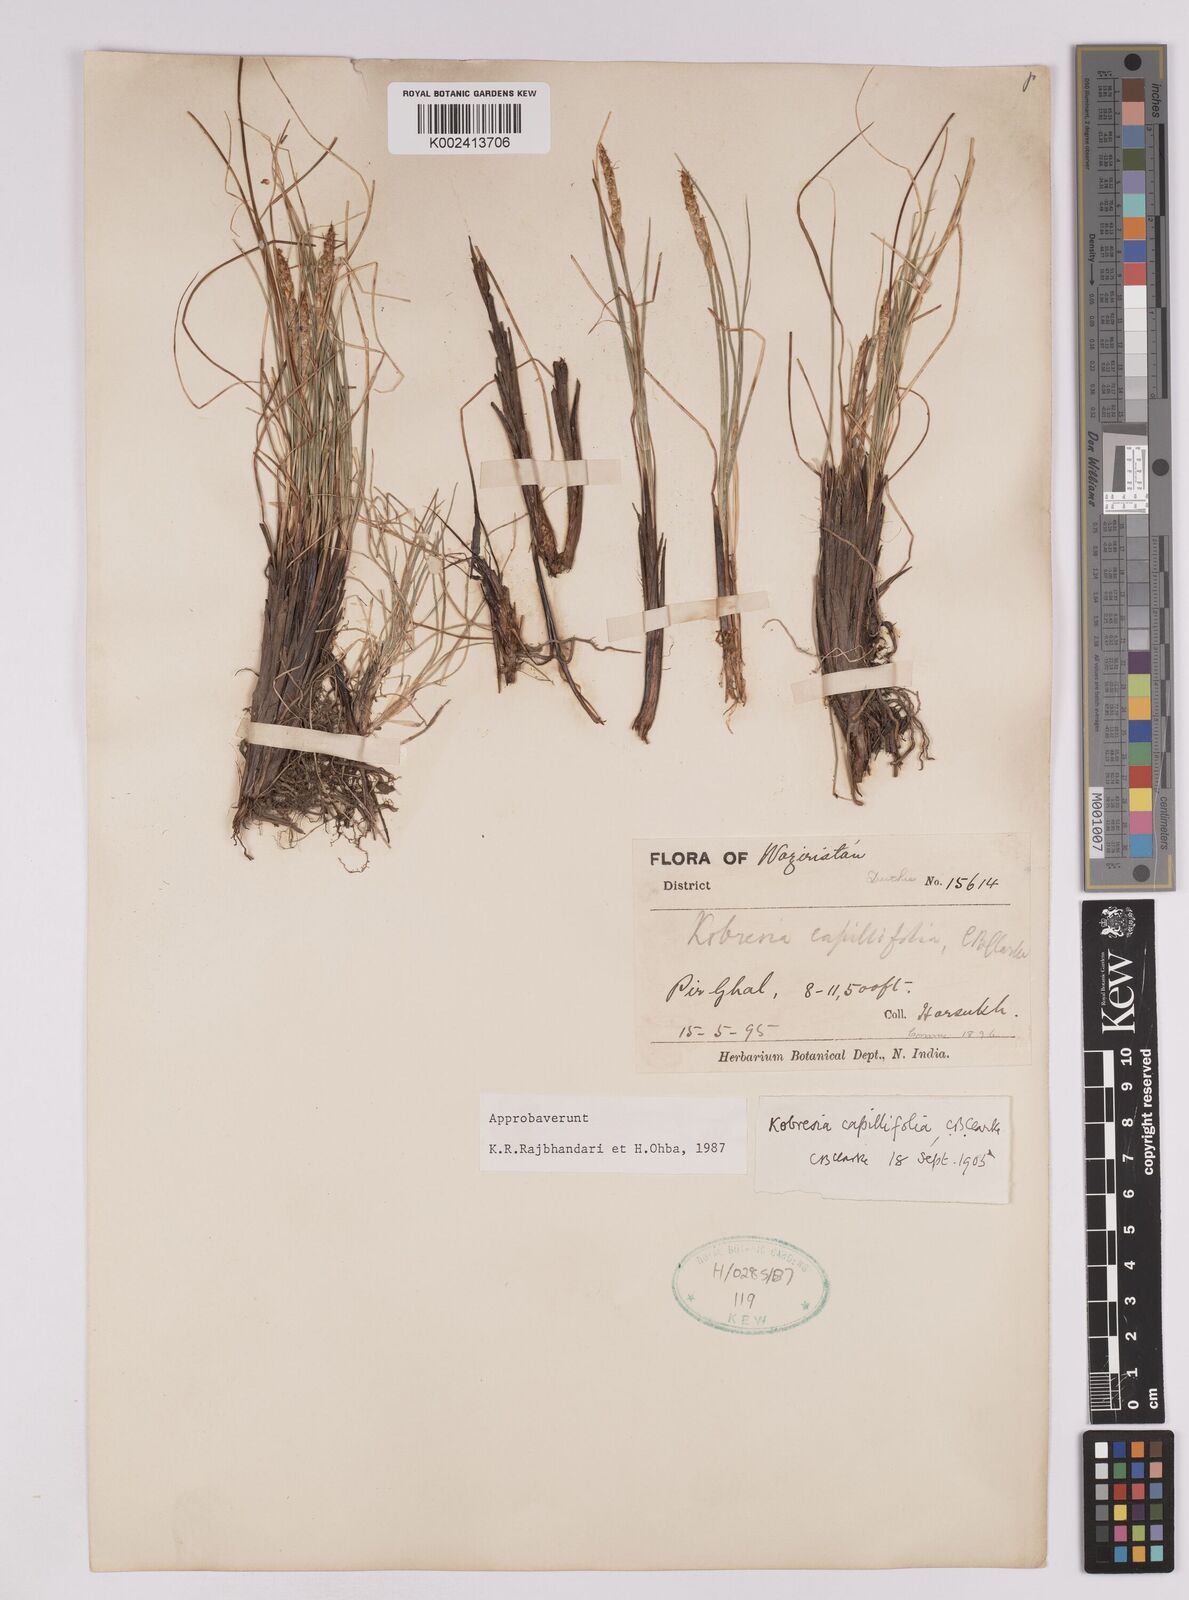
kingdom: Plantae
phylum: Tracheophyta
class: Liliopsida
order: Poales
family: Cyperaceae
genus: Carex
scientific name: Carex capillifolia
